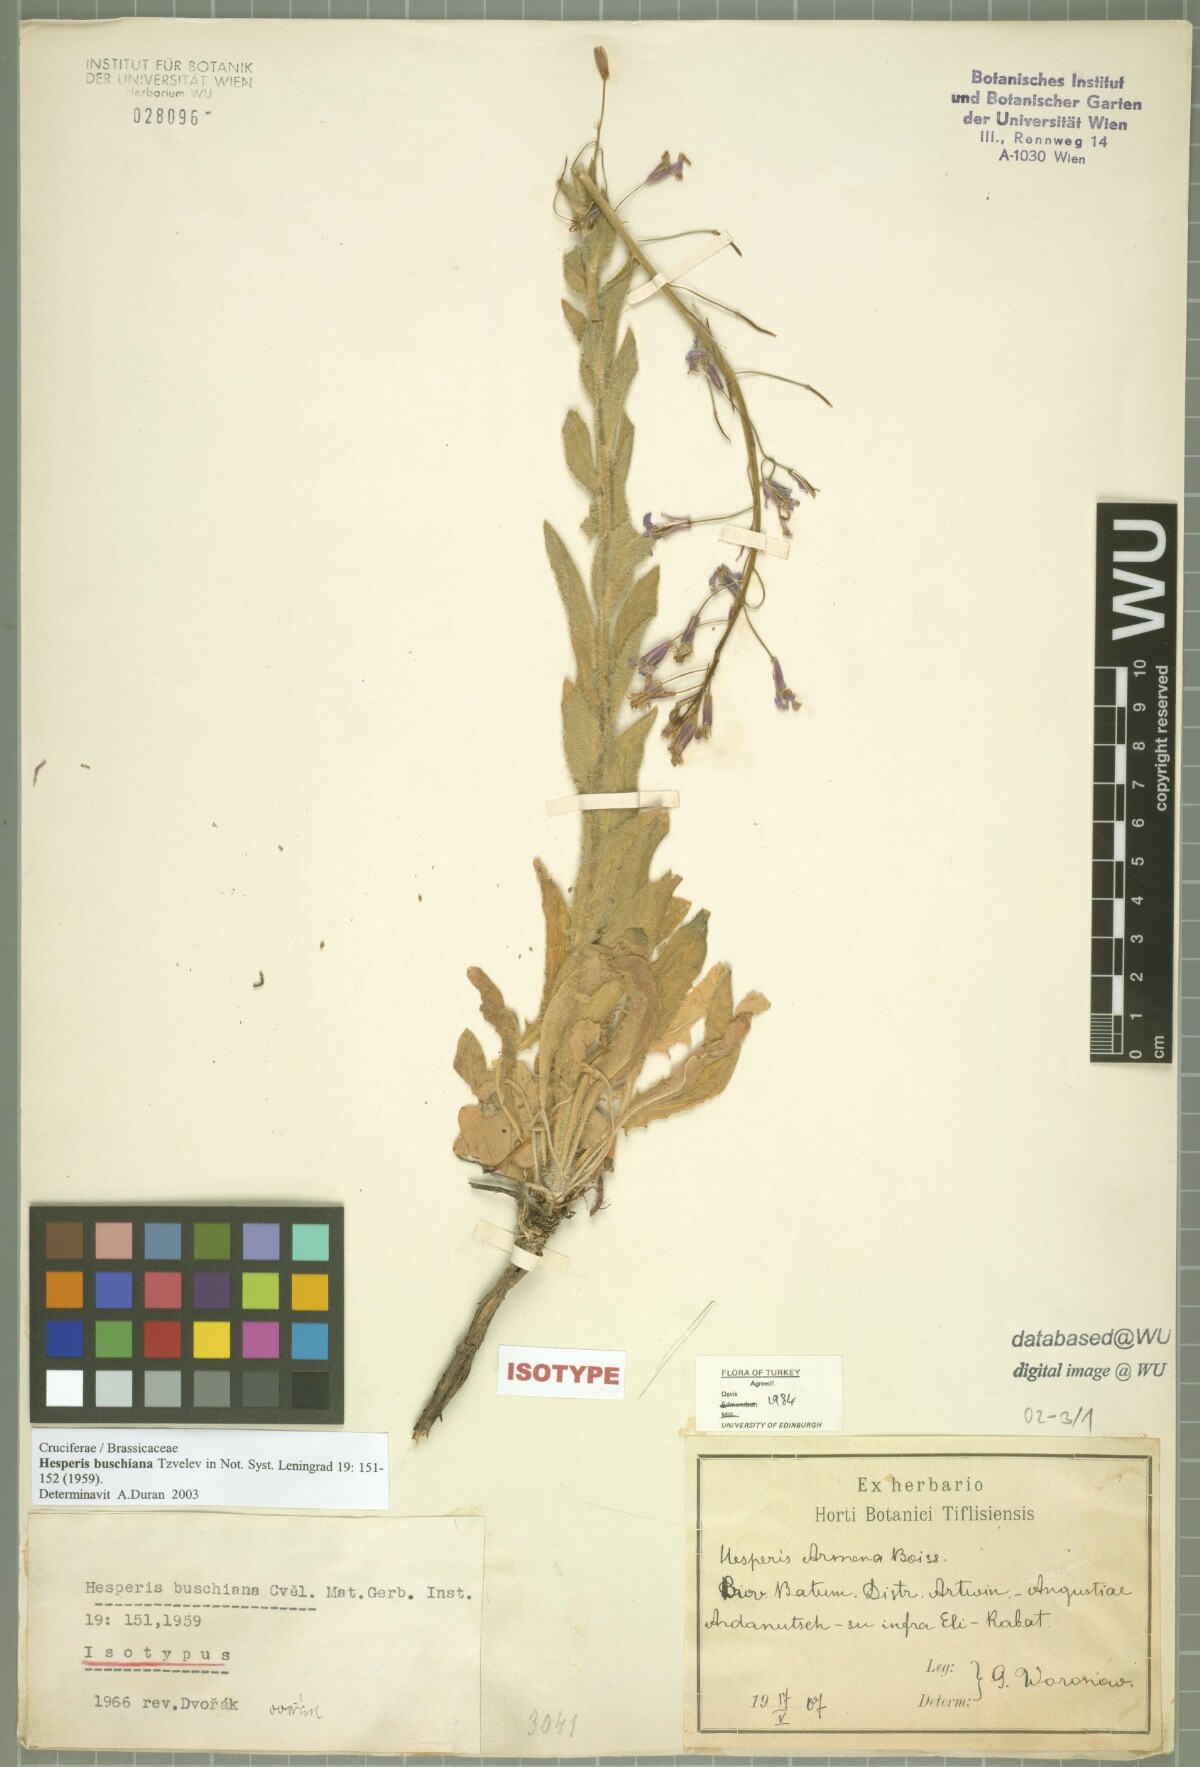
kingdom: Plantae
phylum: Tracheophyta
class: Magnoliopsida
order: Brassicales
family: Brassicaceae
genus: Hesperis
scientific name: Hesperis buschiana
